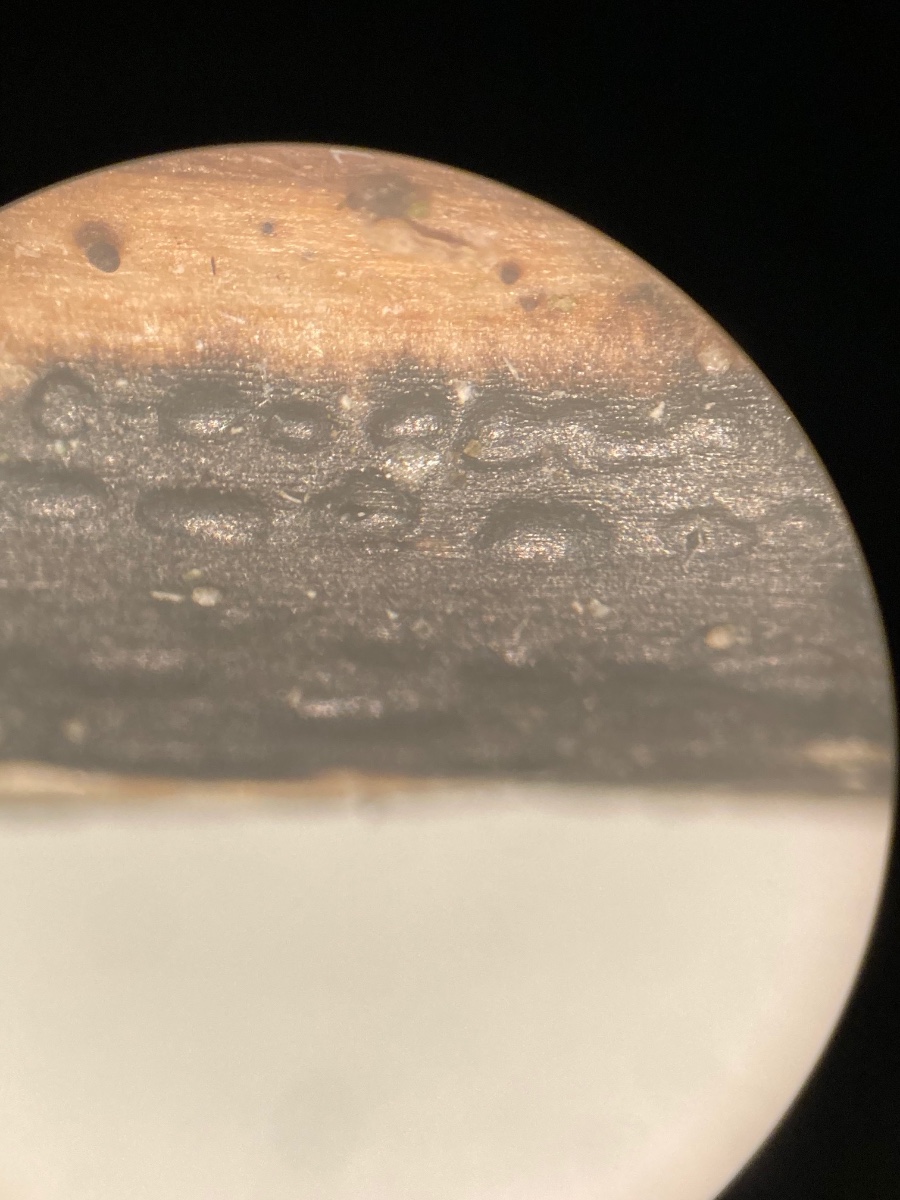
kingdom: Fungi
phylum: Ascomycota
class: Sordariomycetes
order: Diaporthales
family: Diaporthaceae
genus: Diaporthopsis
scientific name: Diaporthopsis urticae
